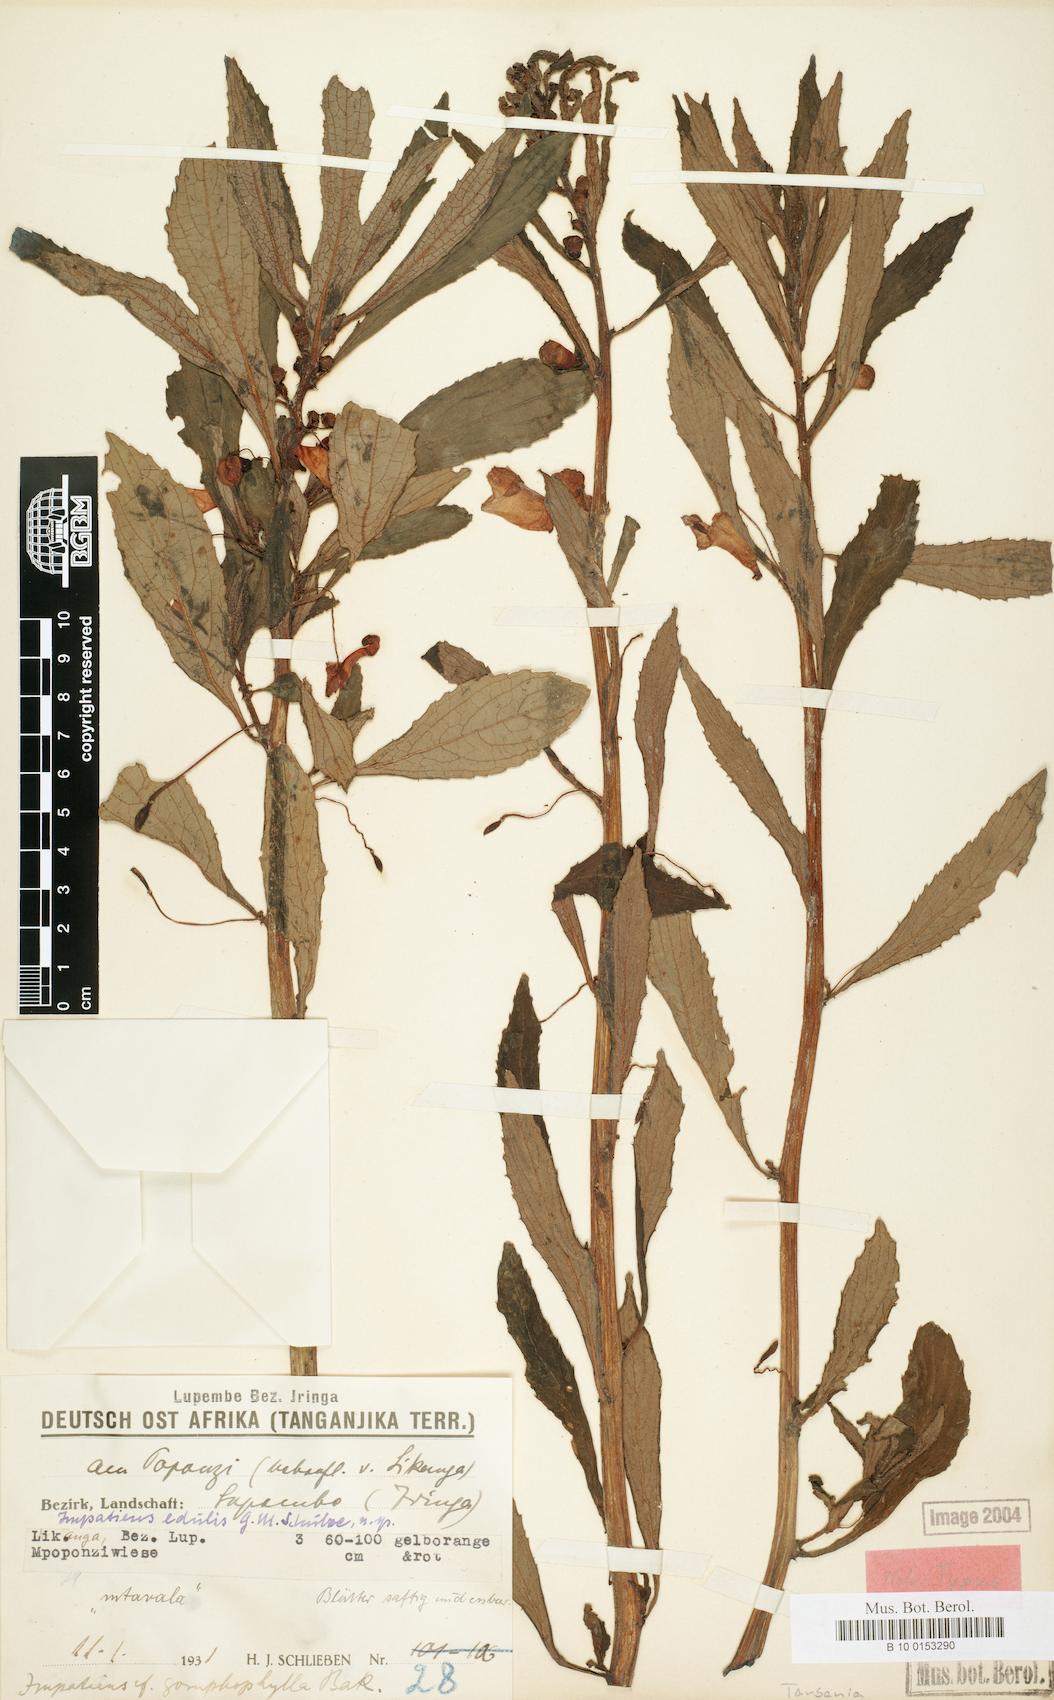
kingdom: Plantae
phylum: Tracheophyta
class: Magnoliopsida
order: Ericales
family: Balsaminaceae
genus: Impatiens
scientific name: Impatiens gomphophylla
